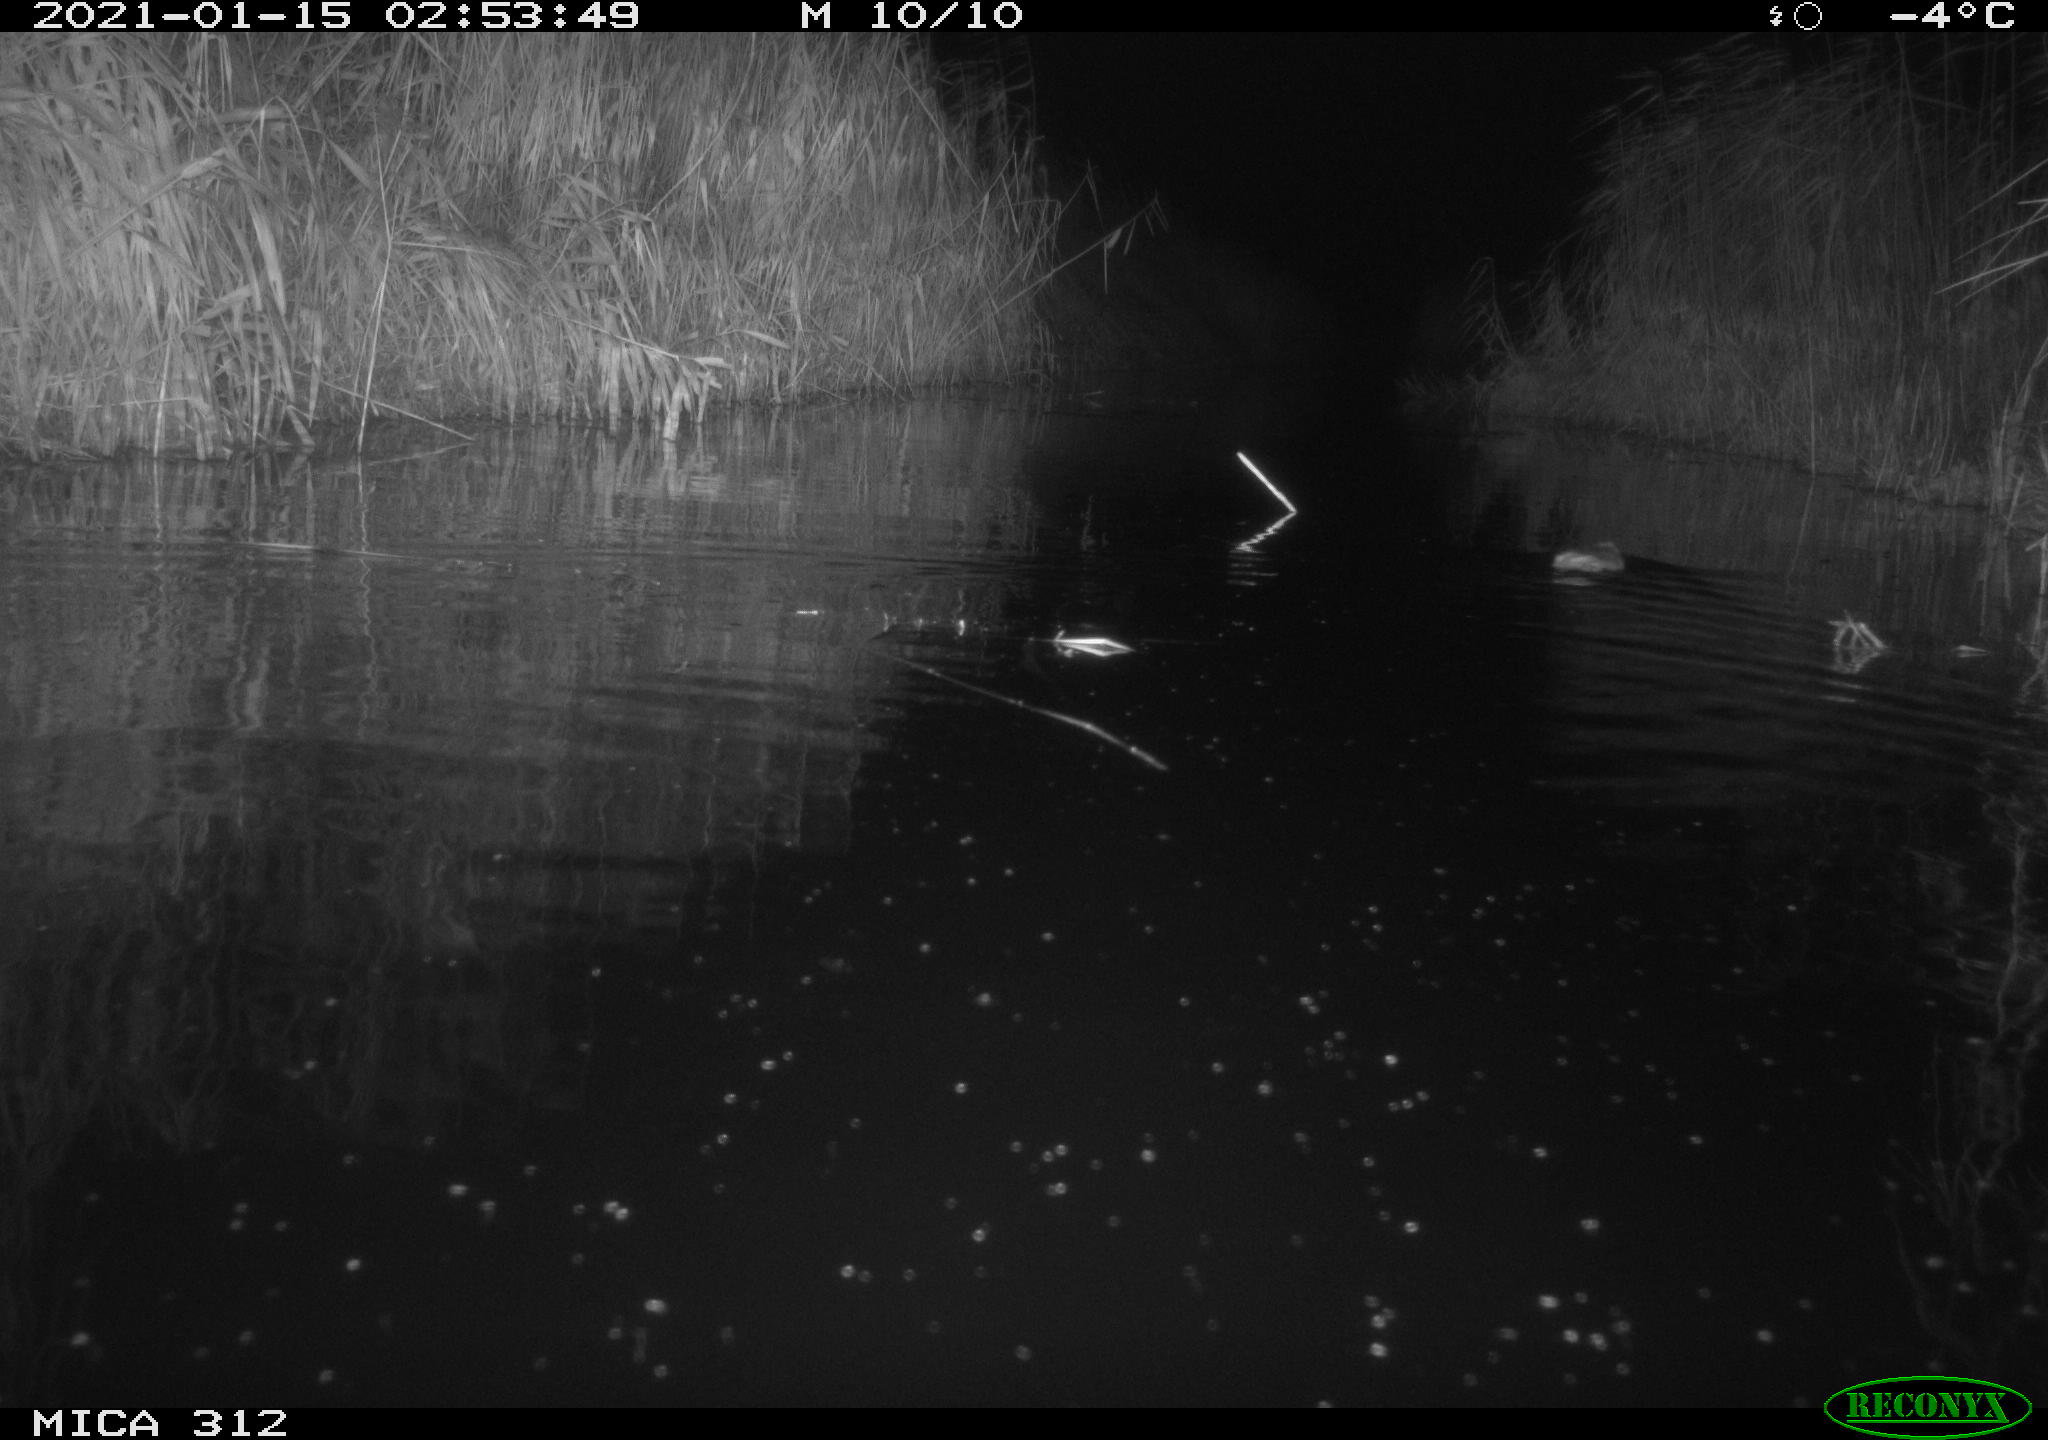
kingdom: Animalia
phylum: Chordata
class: Mammalia
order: Rodentia
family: Muridae
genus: Rattus
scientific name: Rattus norvegicus
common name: Brown rat
